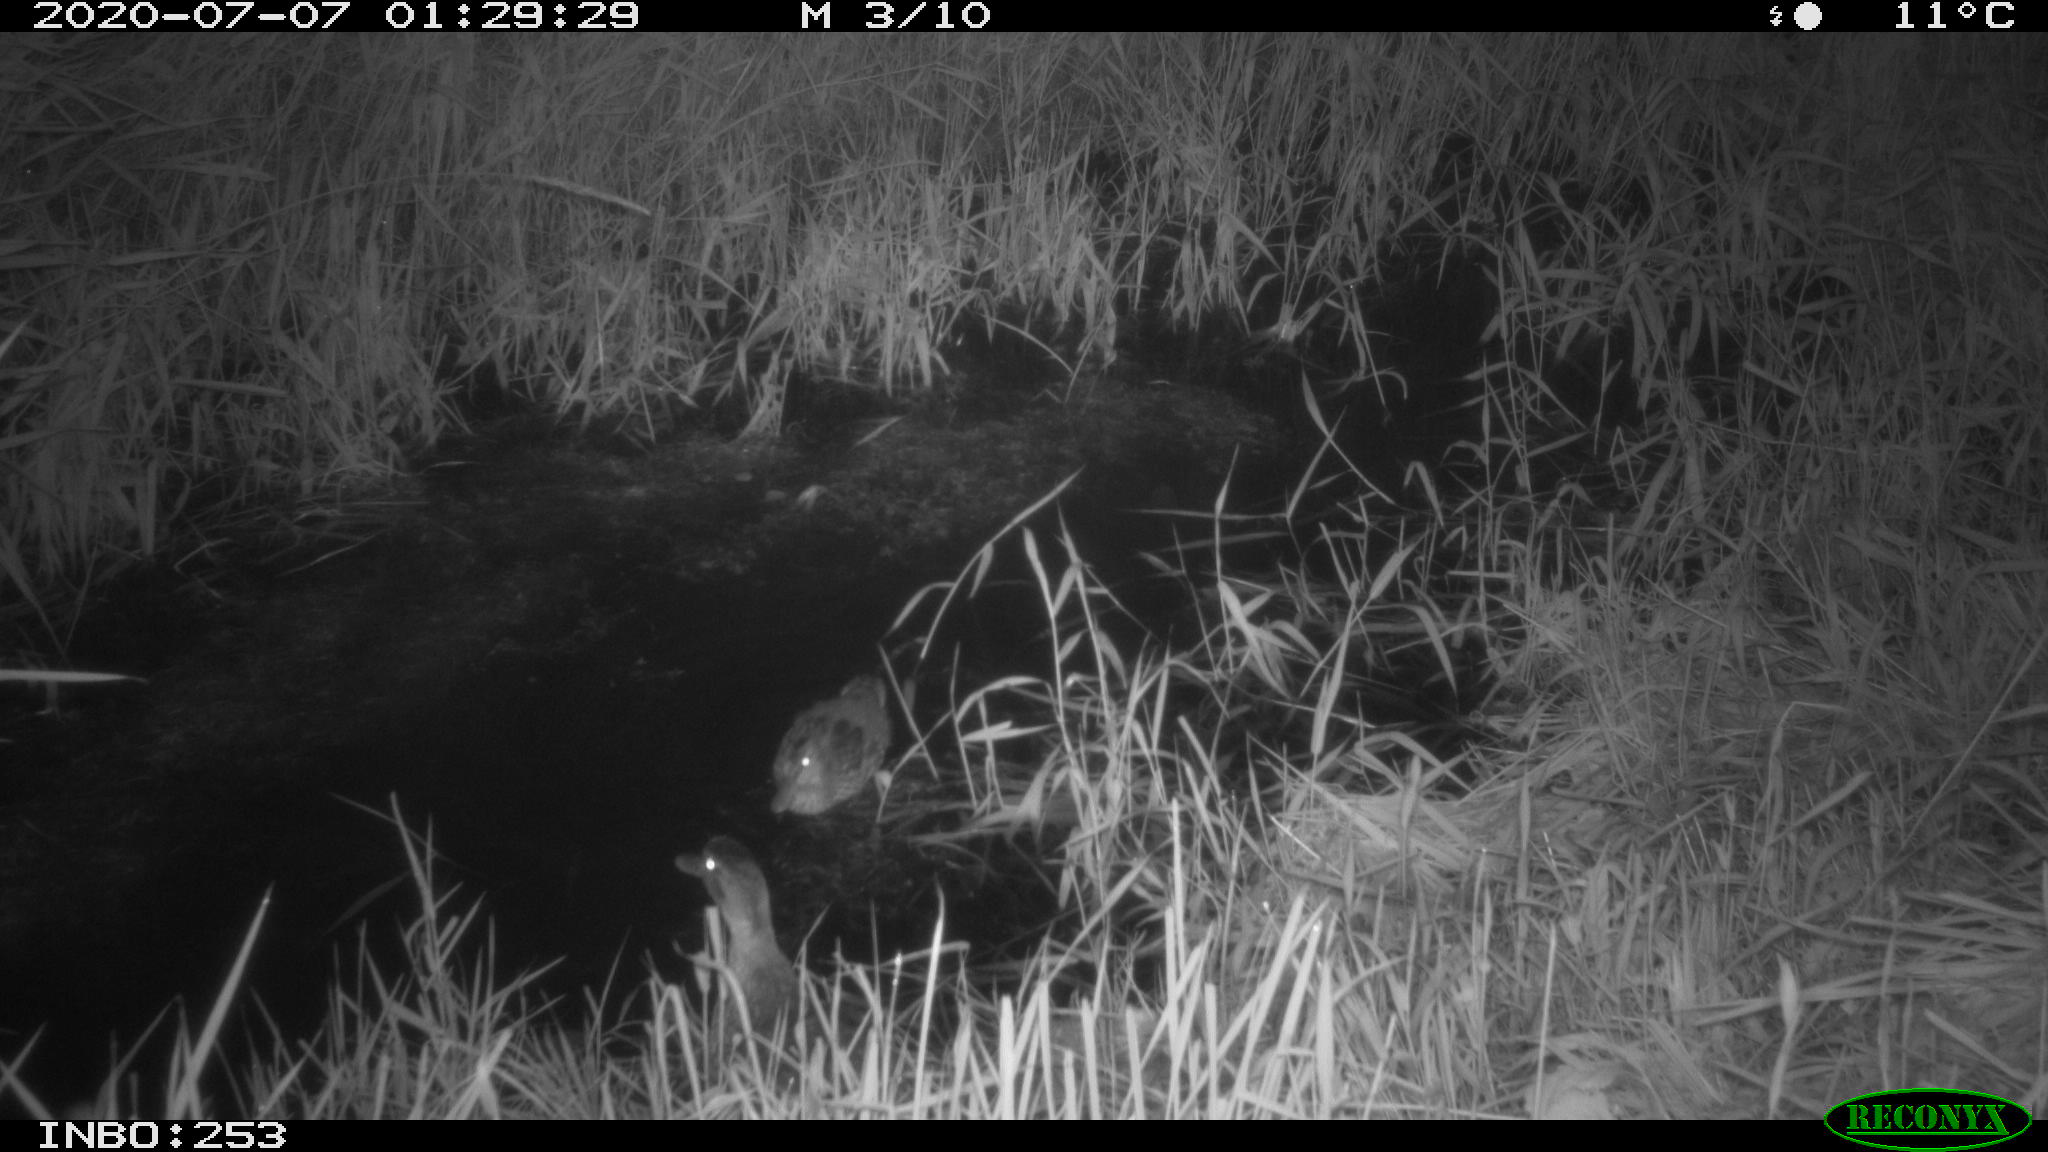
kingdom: Animalia
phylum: Chordata
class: Aves
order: Anseriformes
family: Anatidae
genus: Anas
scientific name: Anas platyrhynchos
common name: Mallard
